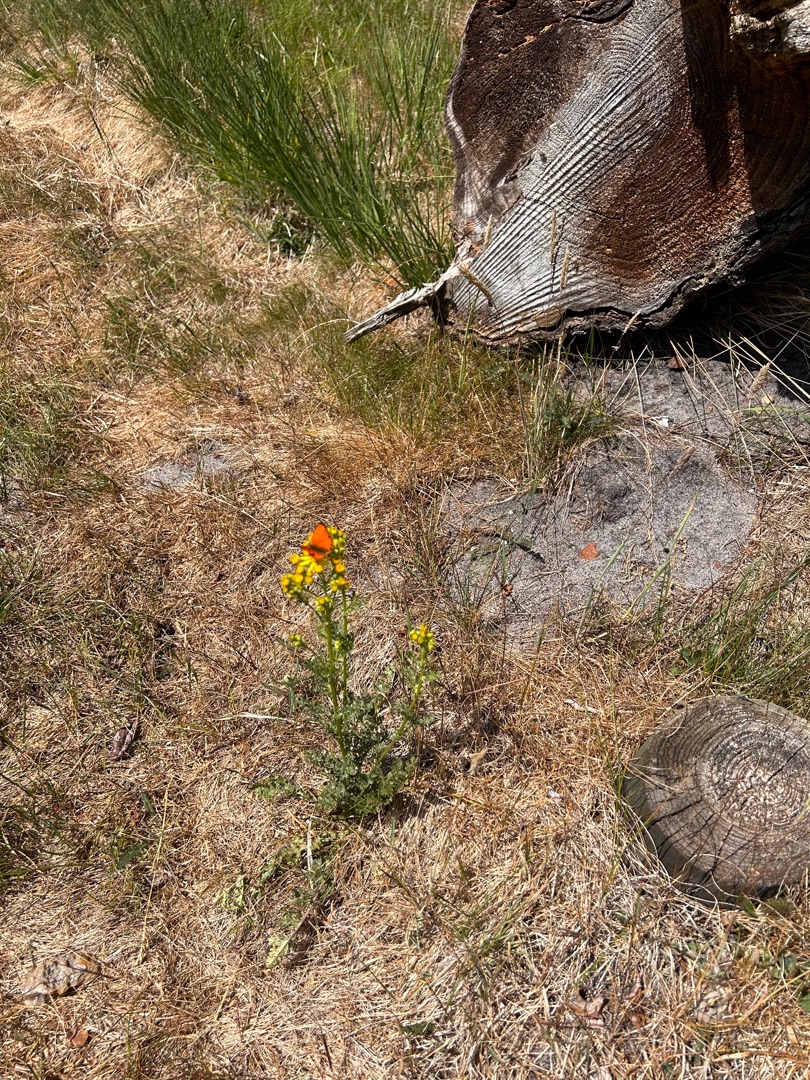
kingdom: Animalia
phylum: Arthropoda
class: Insecta
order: Lepidoptera
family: Lycaenidae
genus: Lycaena
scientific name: Lycaena virgaureae
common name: Dukatsommerfugl
